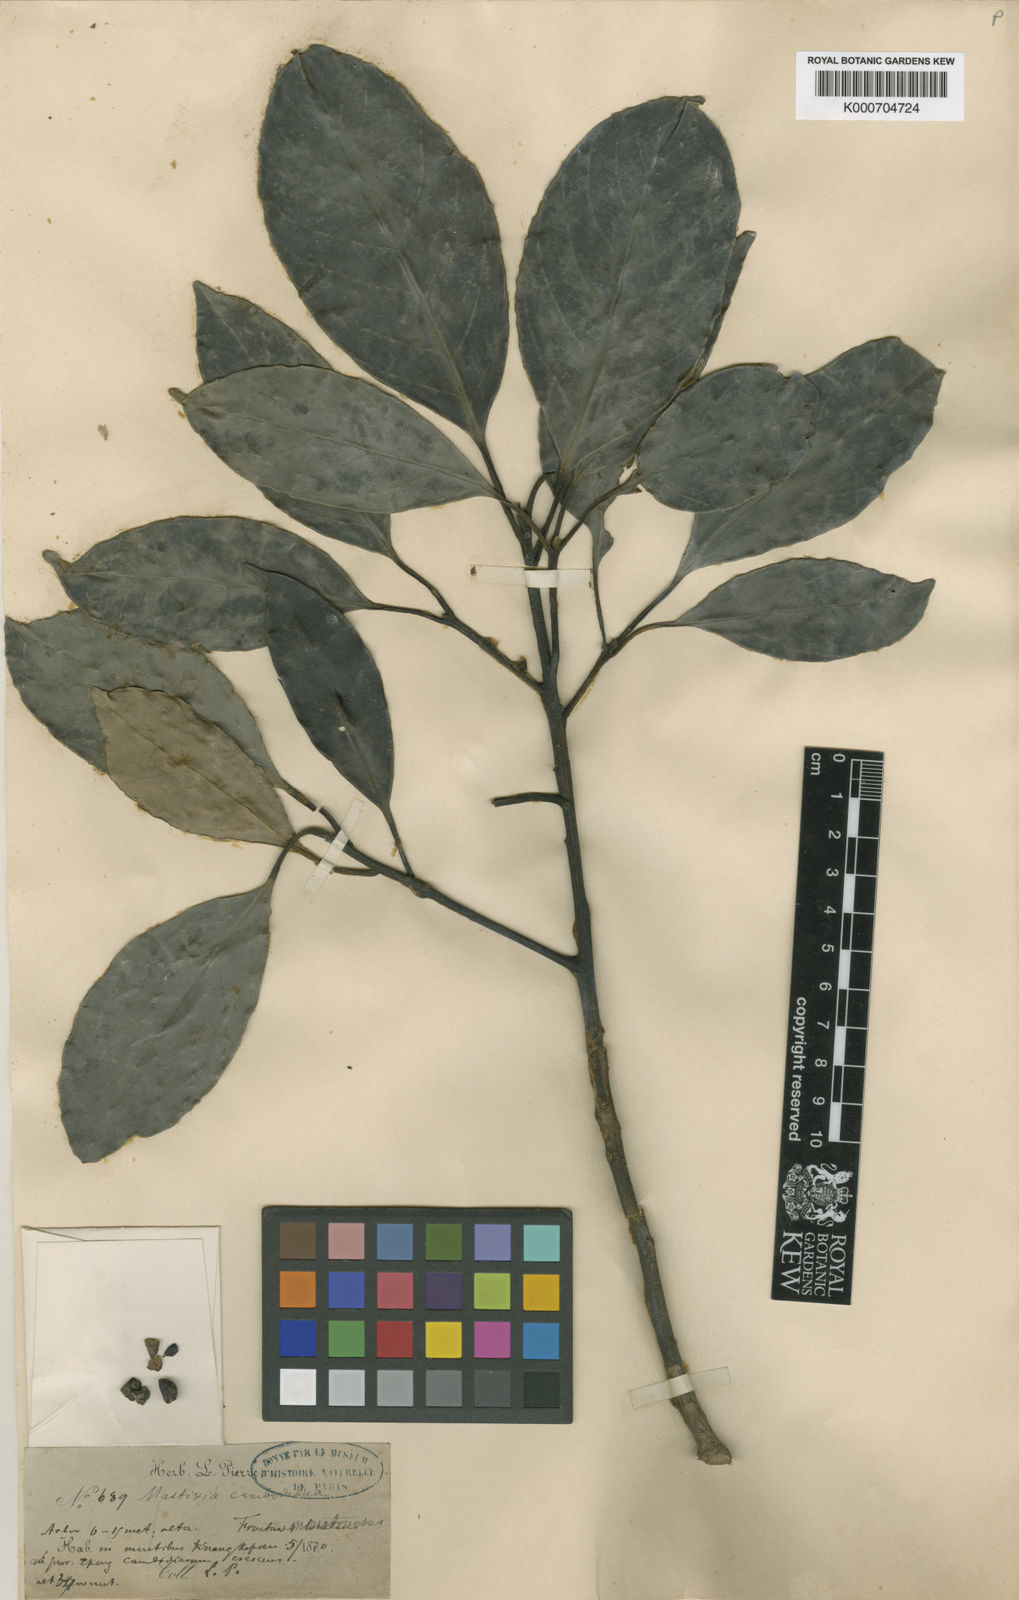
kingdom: Plantae
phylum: Tracheophyta
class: Magnoliopsida
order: Cornales
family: Nyssaceae
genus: Mastixia
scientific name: Mastixia pentandra
